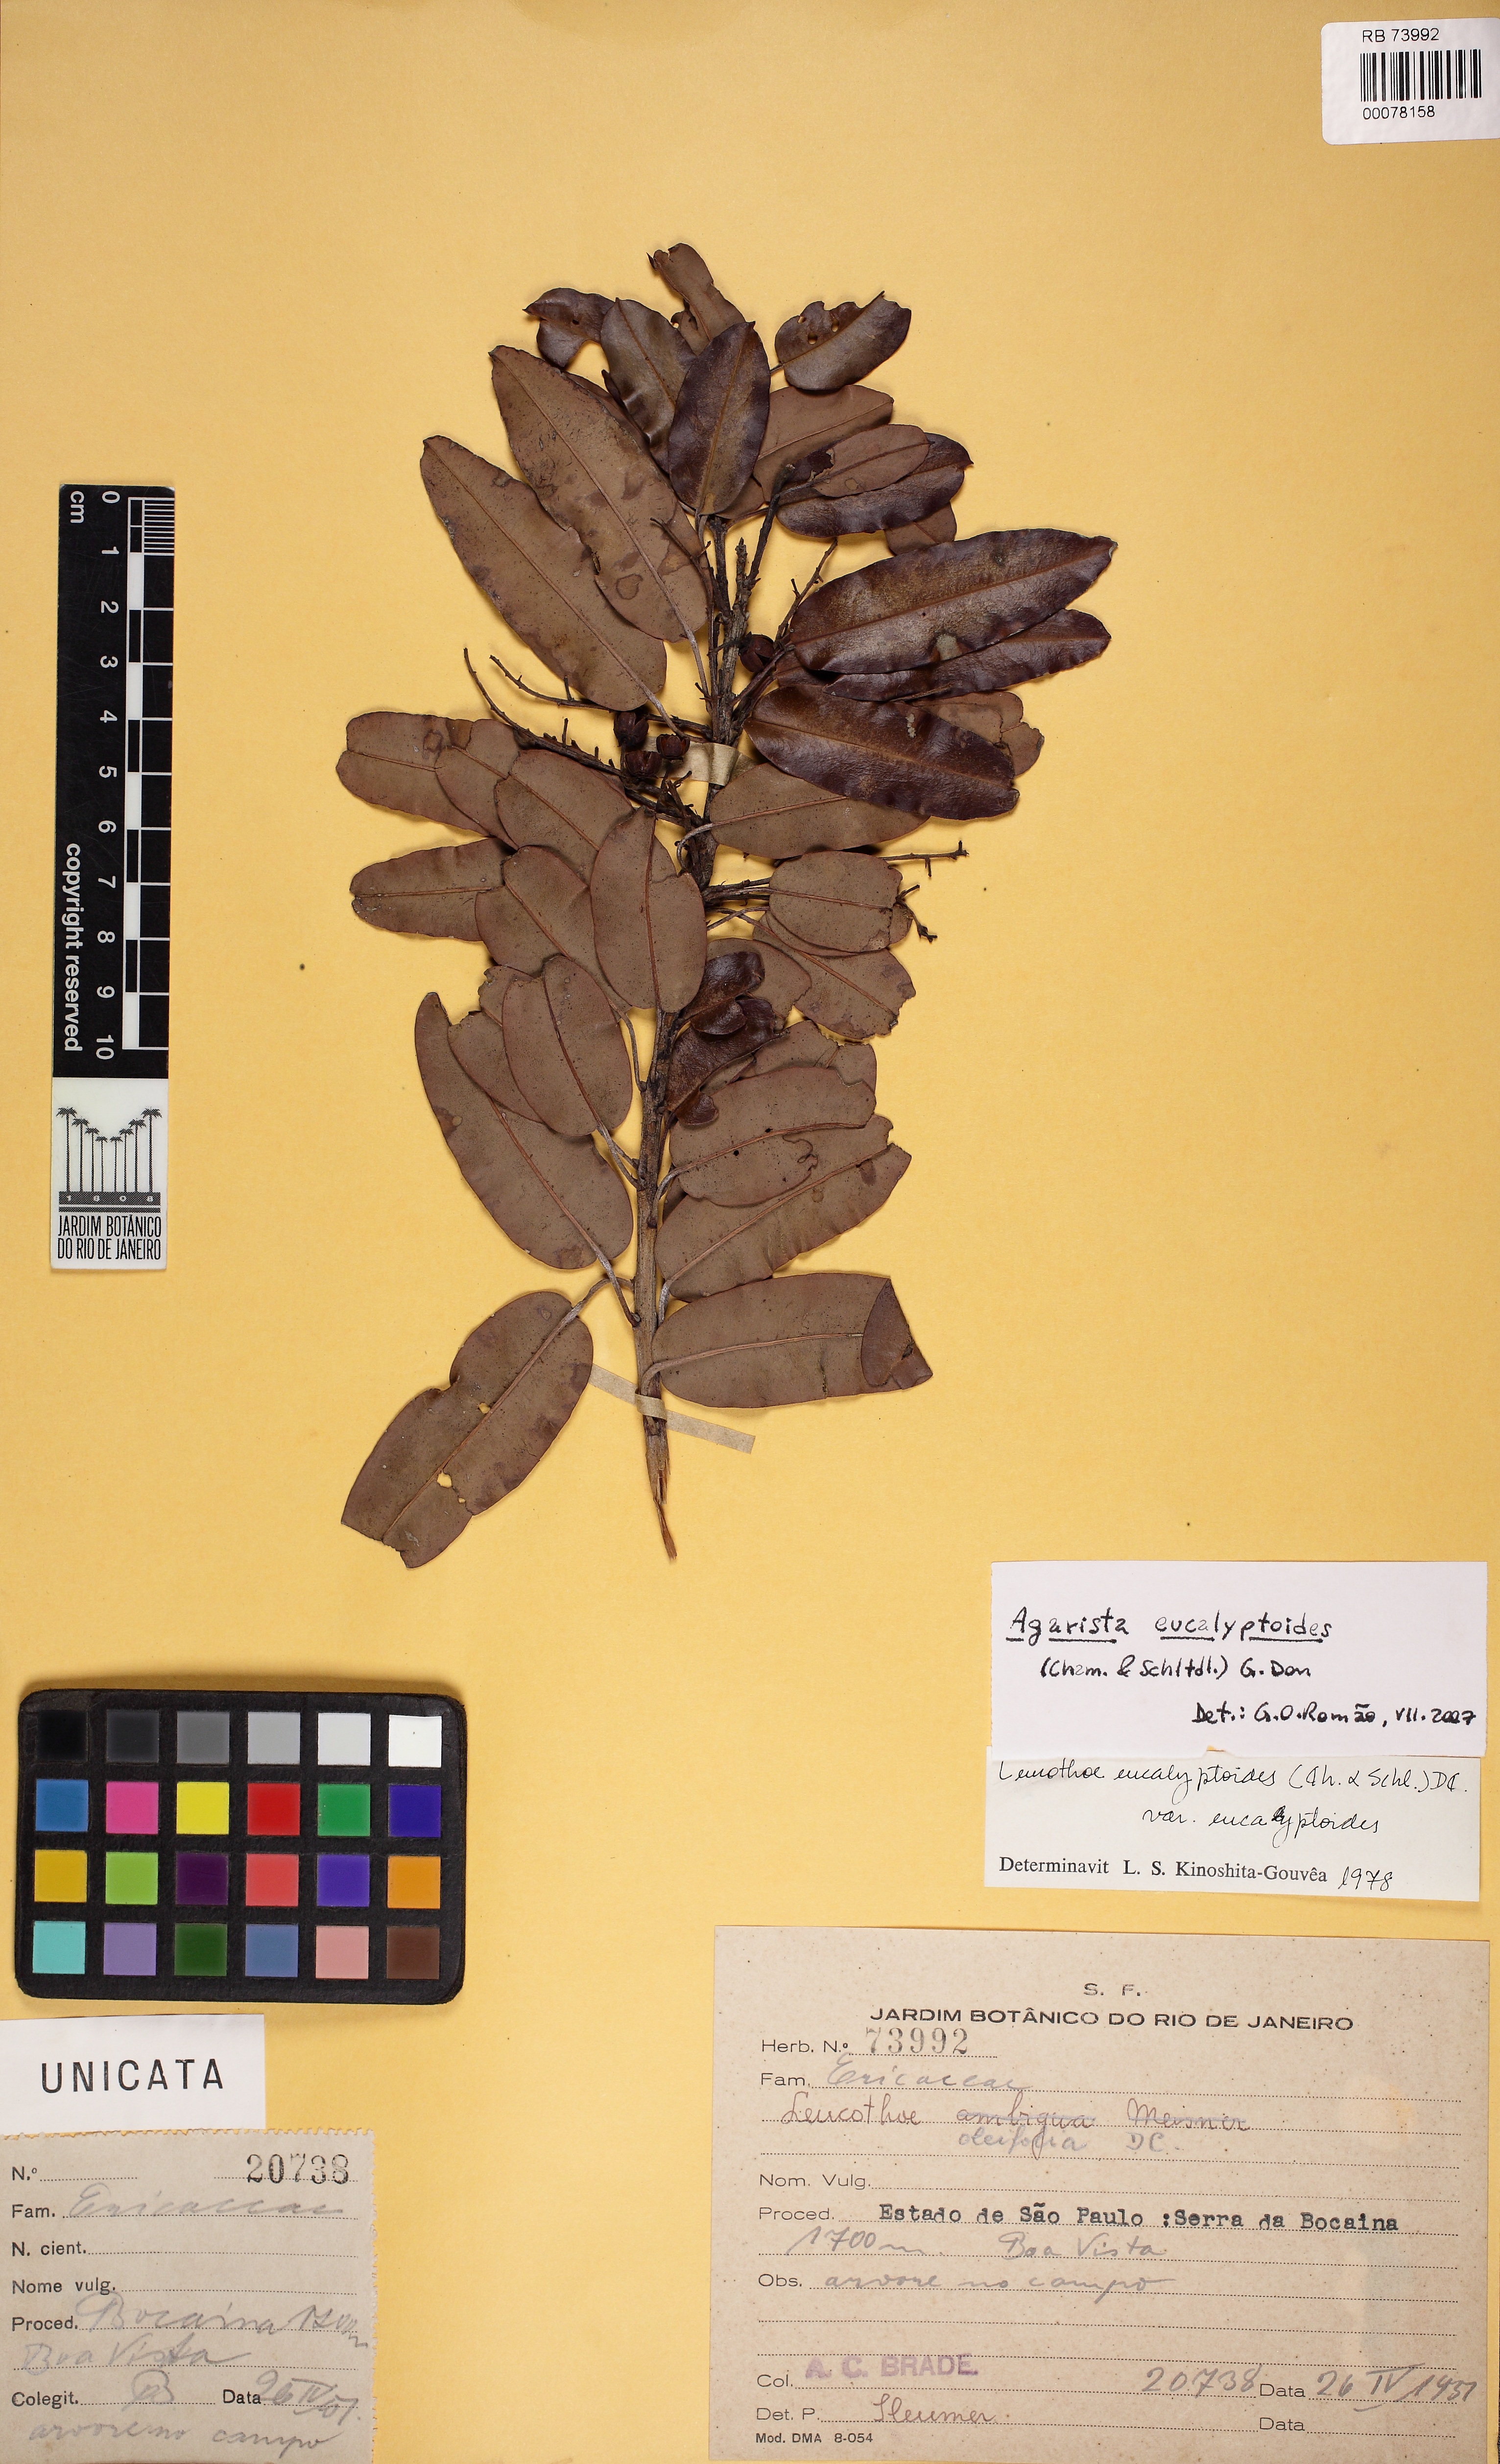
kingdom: Plantae
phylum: Tracheophyta
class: Magnoliopsida
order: Ericales
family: Ericaceae
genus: Agarista
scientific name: Agarista eucalyptoides
